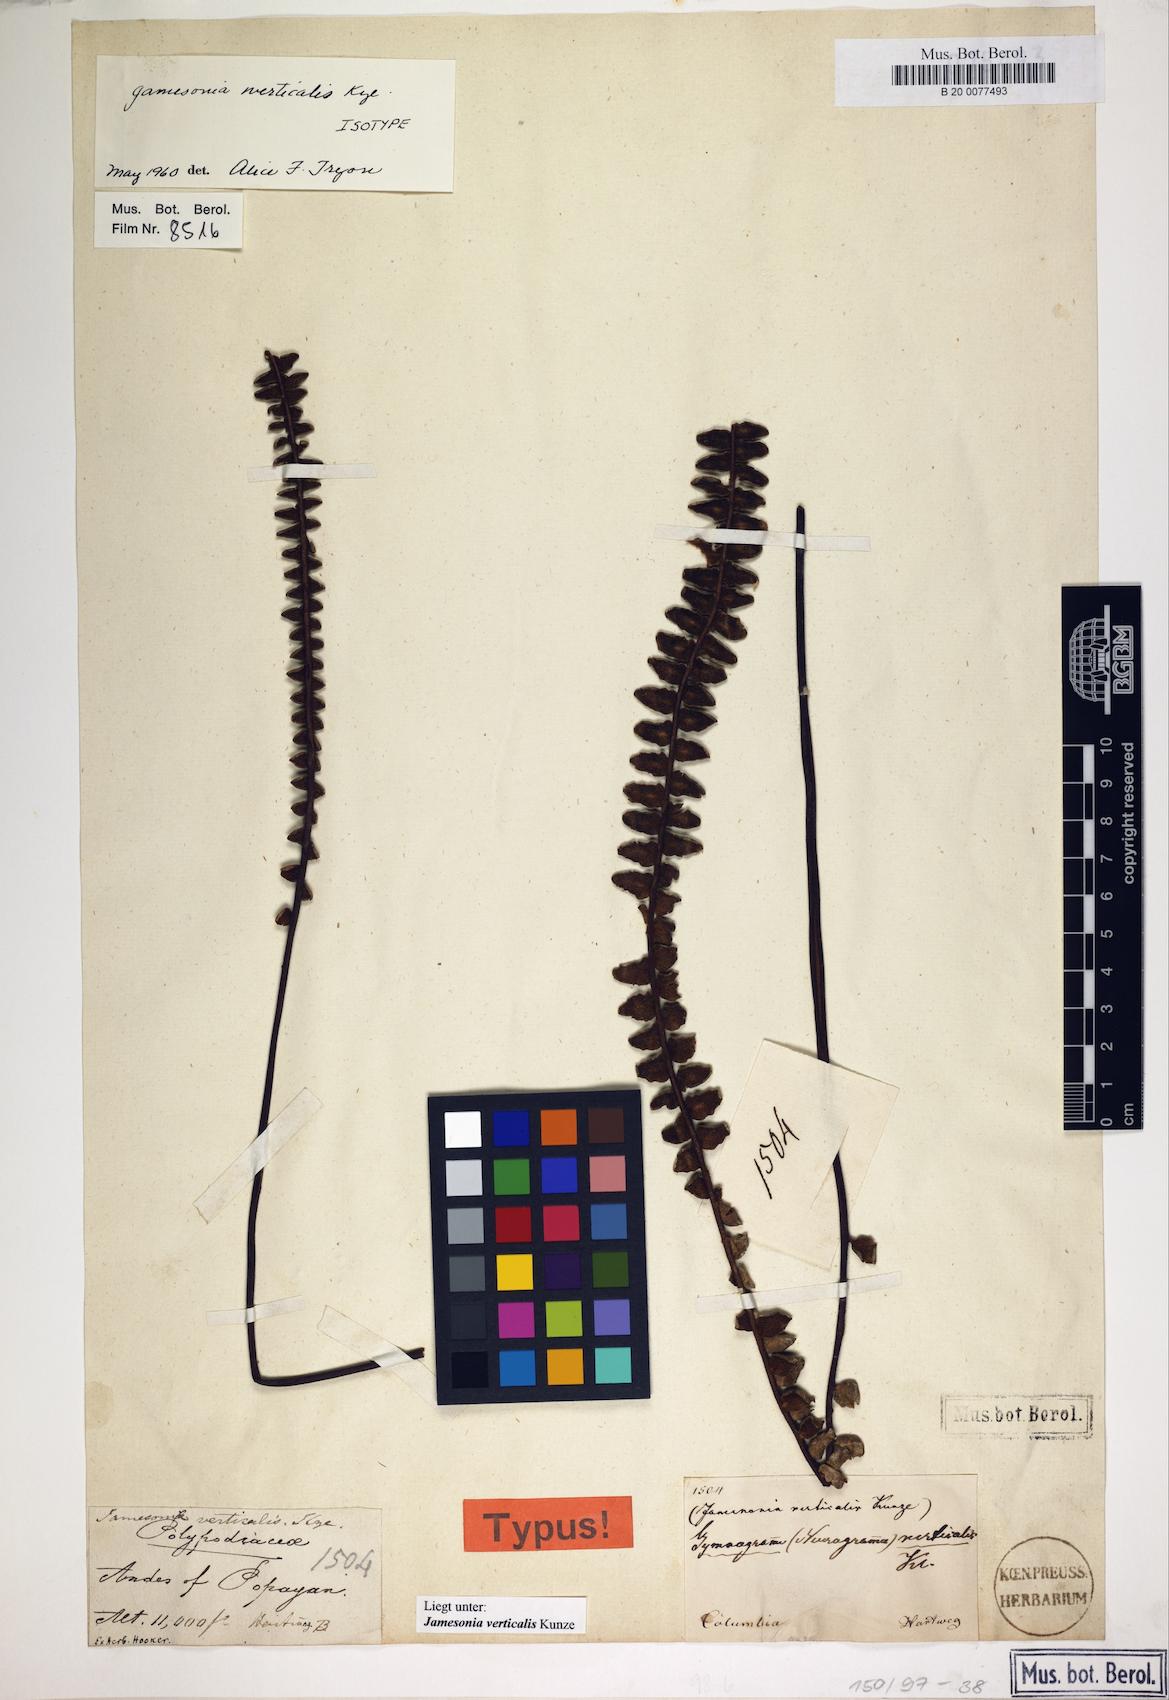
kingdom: Plantae
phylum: Tracheophyta
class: Polypodiopsida
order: Polypodiales
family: Pteridaceae
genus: Jamesonia
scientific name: Jamesonia verticalis
